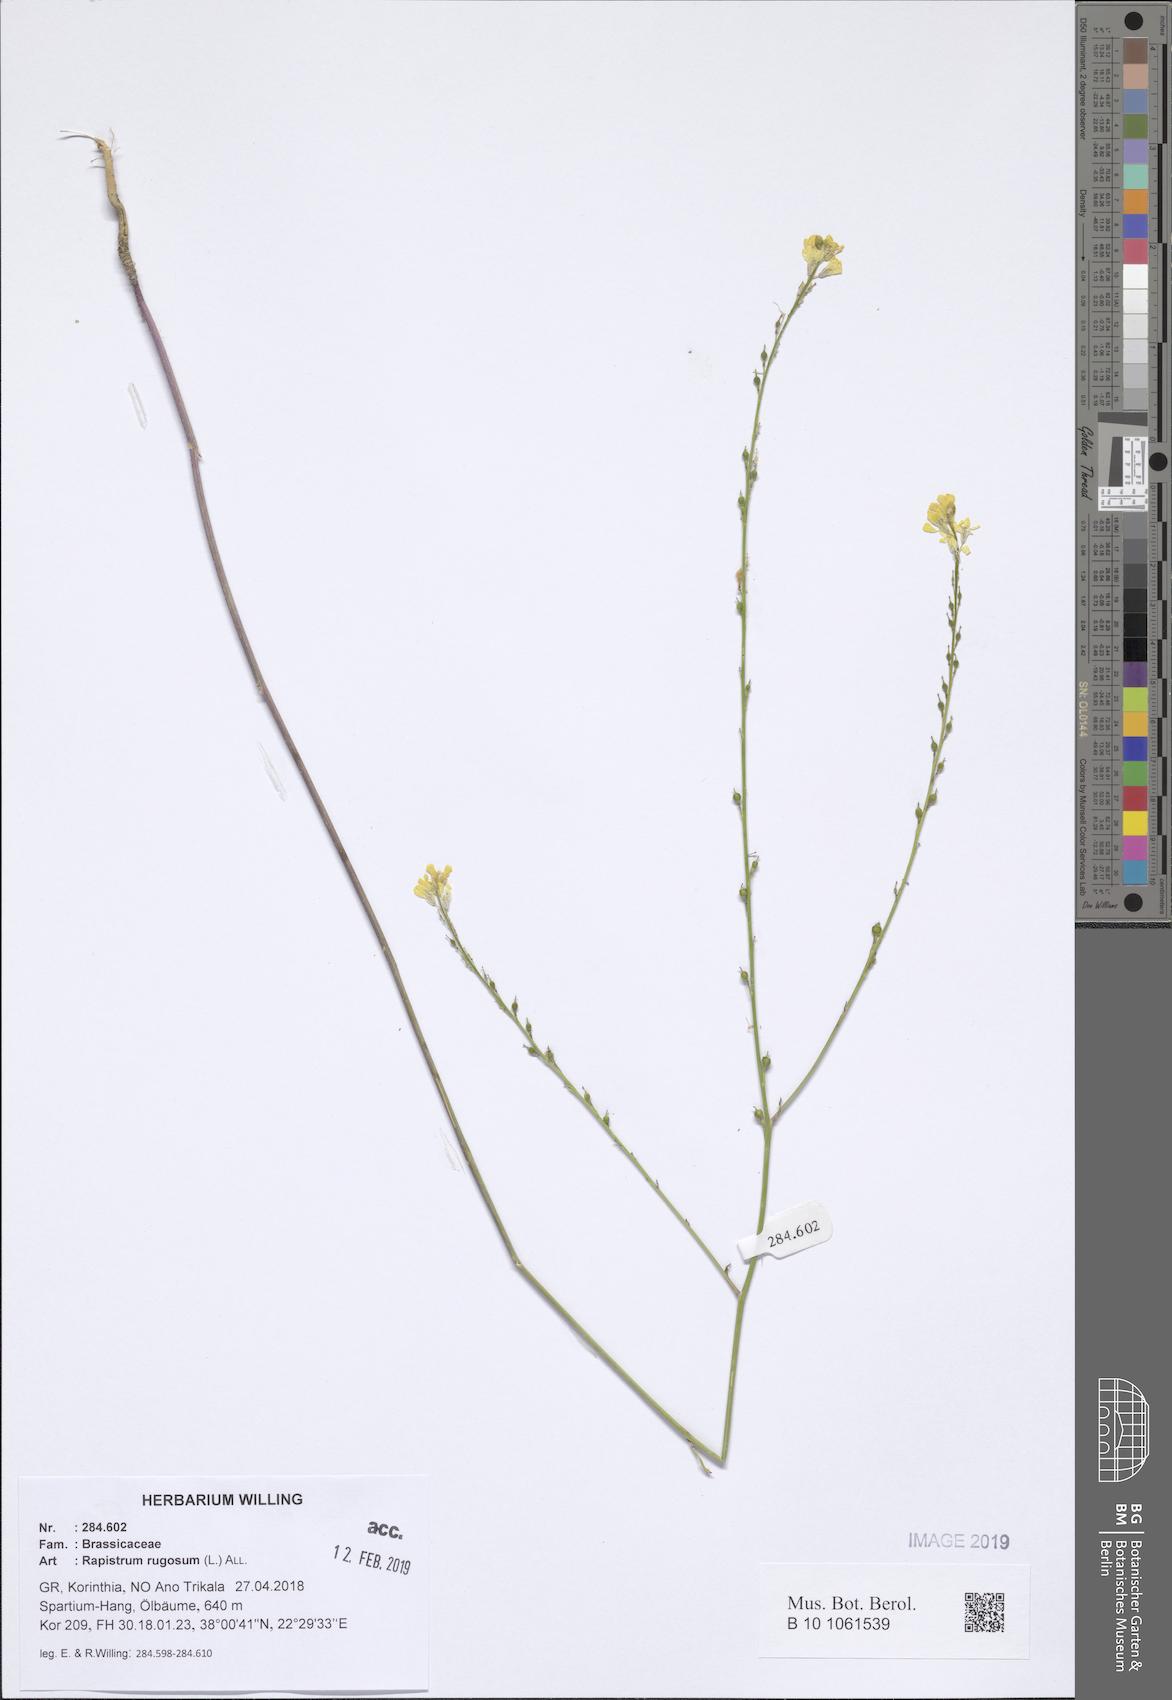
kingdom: Plantae
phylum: Tracheophyta
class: Magnoliopsida
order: Brassicales
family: Brassicaceae
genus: Rapistrum
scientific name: Rapistrum rugosum
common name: Annual bastardcabbage
